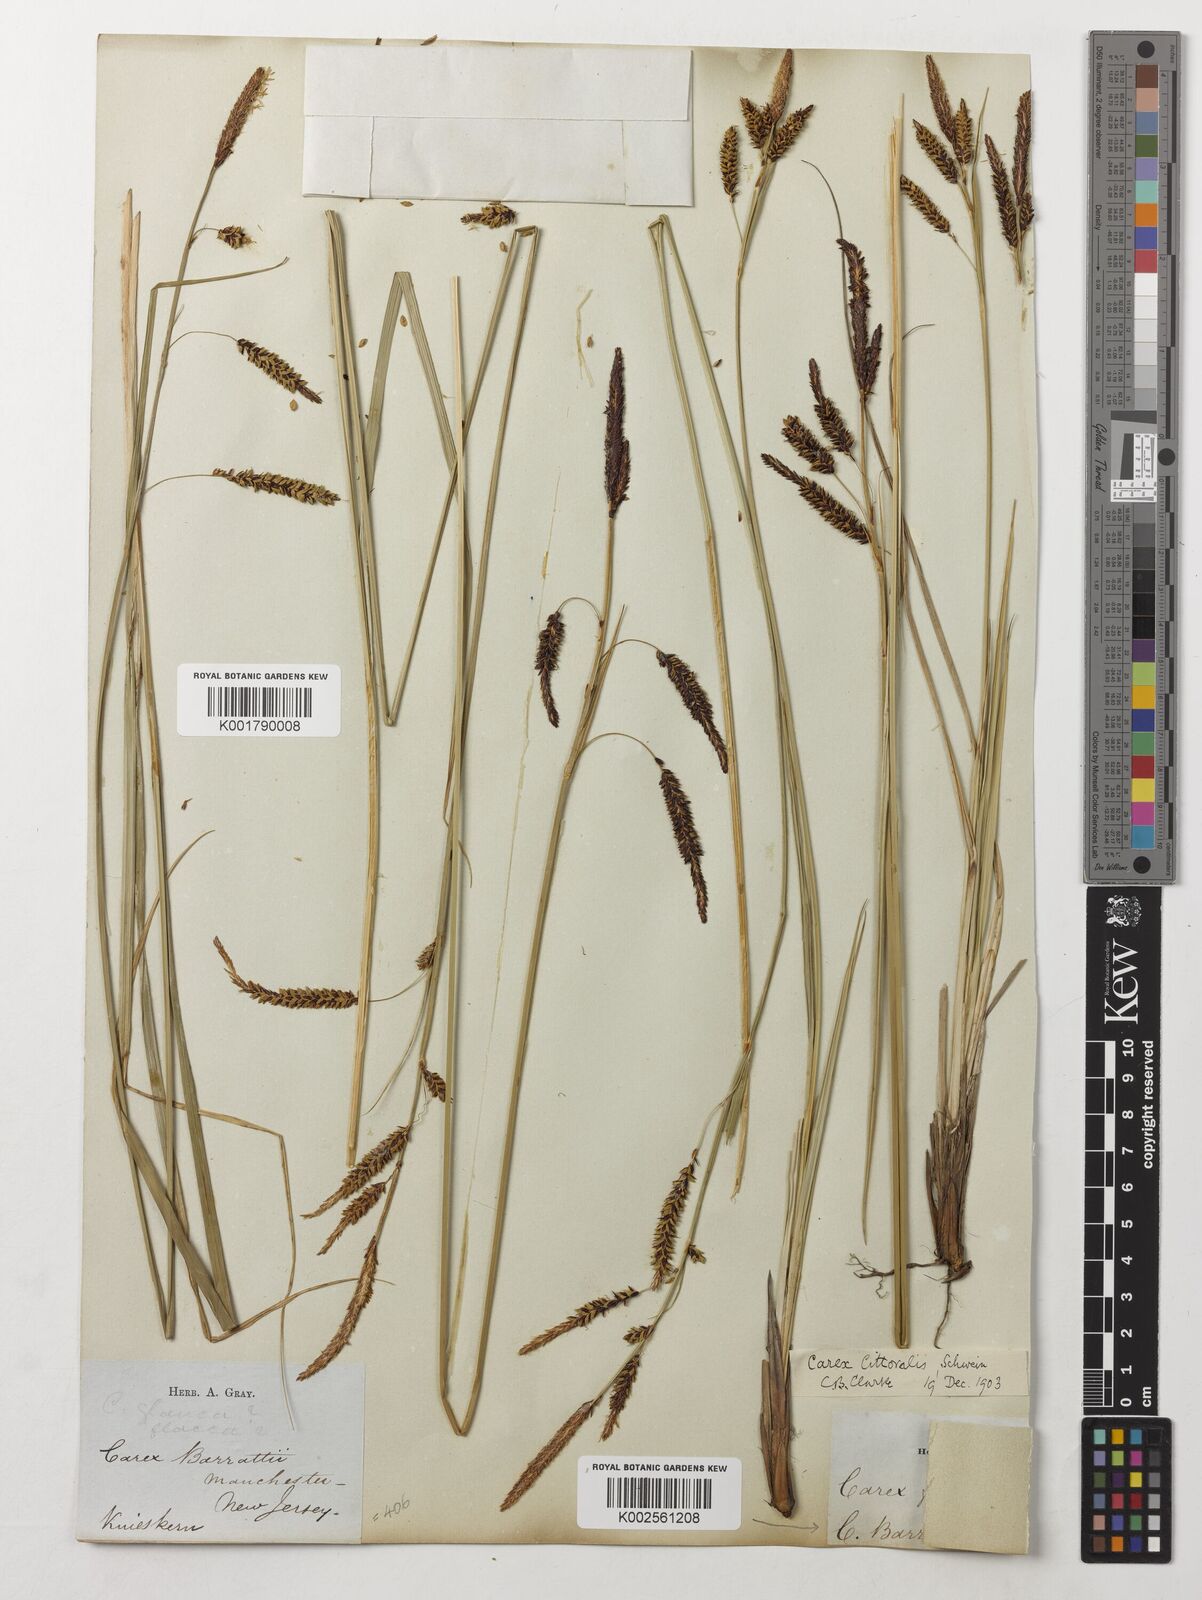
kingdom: Plantae
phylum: Tracheophyta
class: Liliopsida
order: Poales
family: Cyperaceae
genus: Carex
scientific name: Carex barrattii
